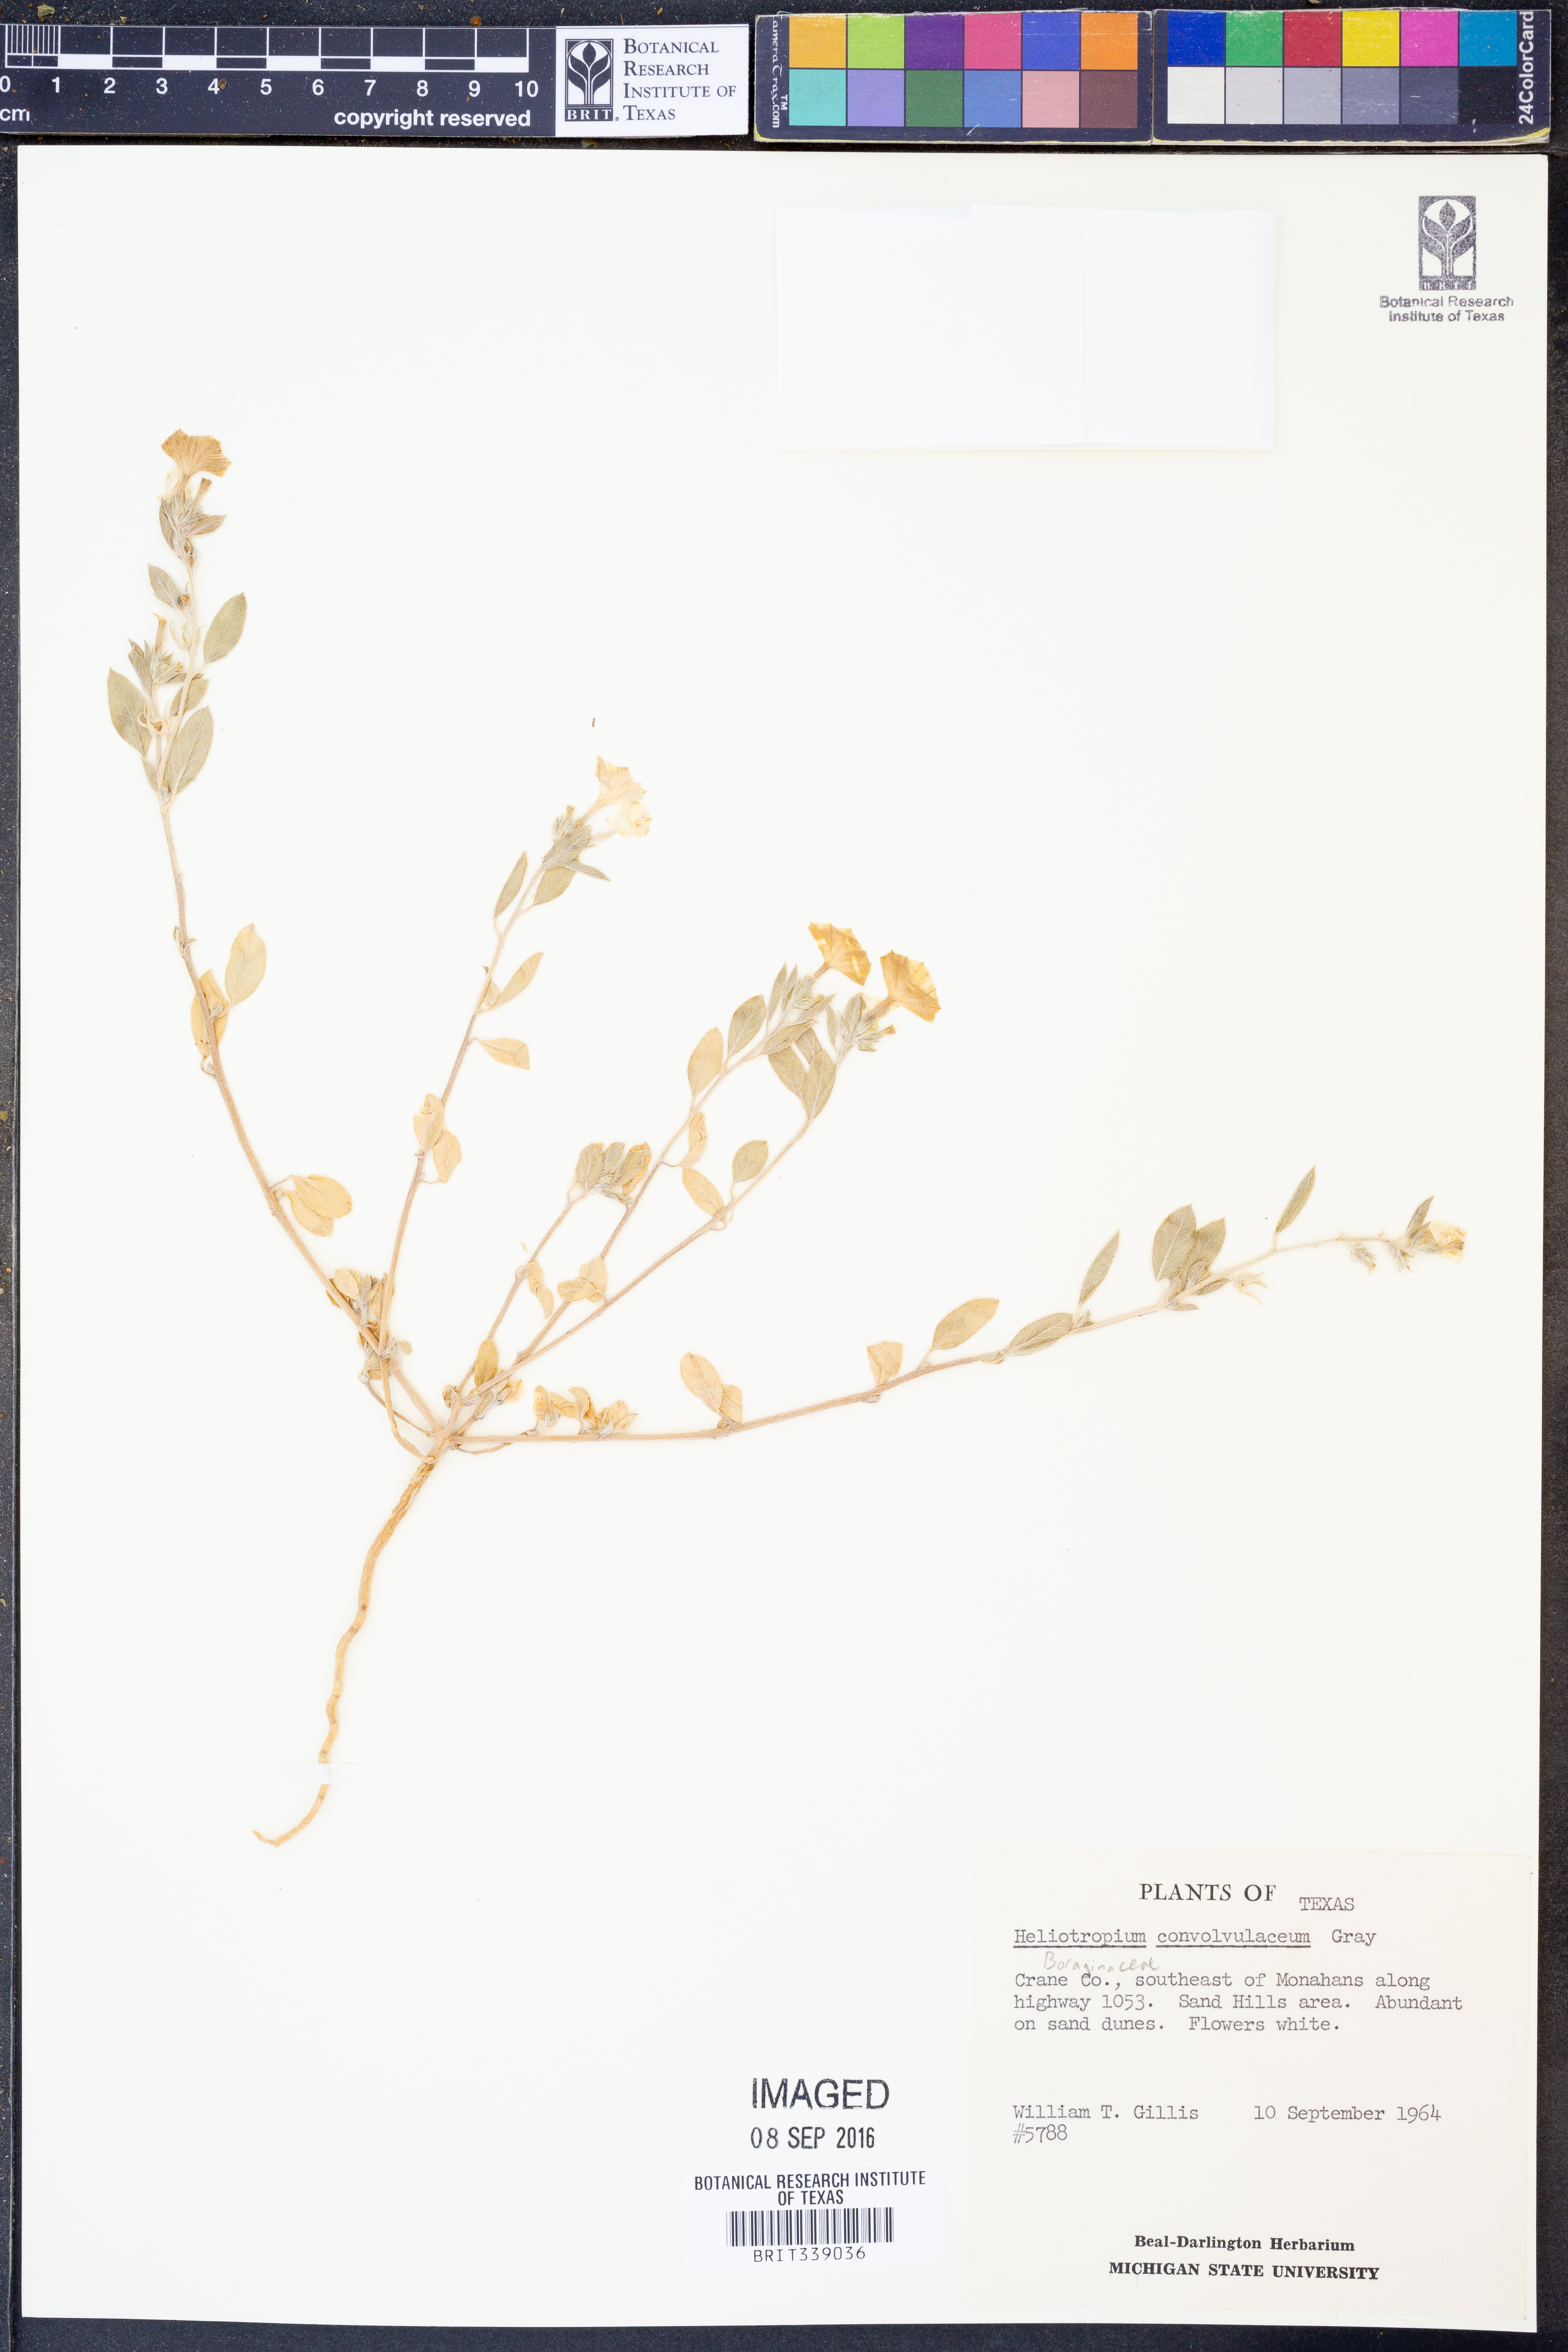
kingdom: Plantae
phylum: Tracheophyta
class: Magnoliopsida
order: Boraginales
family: Heliotropiaceae
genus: Euploca
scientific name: Euploca convolvulacea
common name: Bindweed heliotrope
